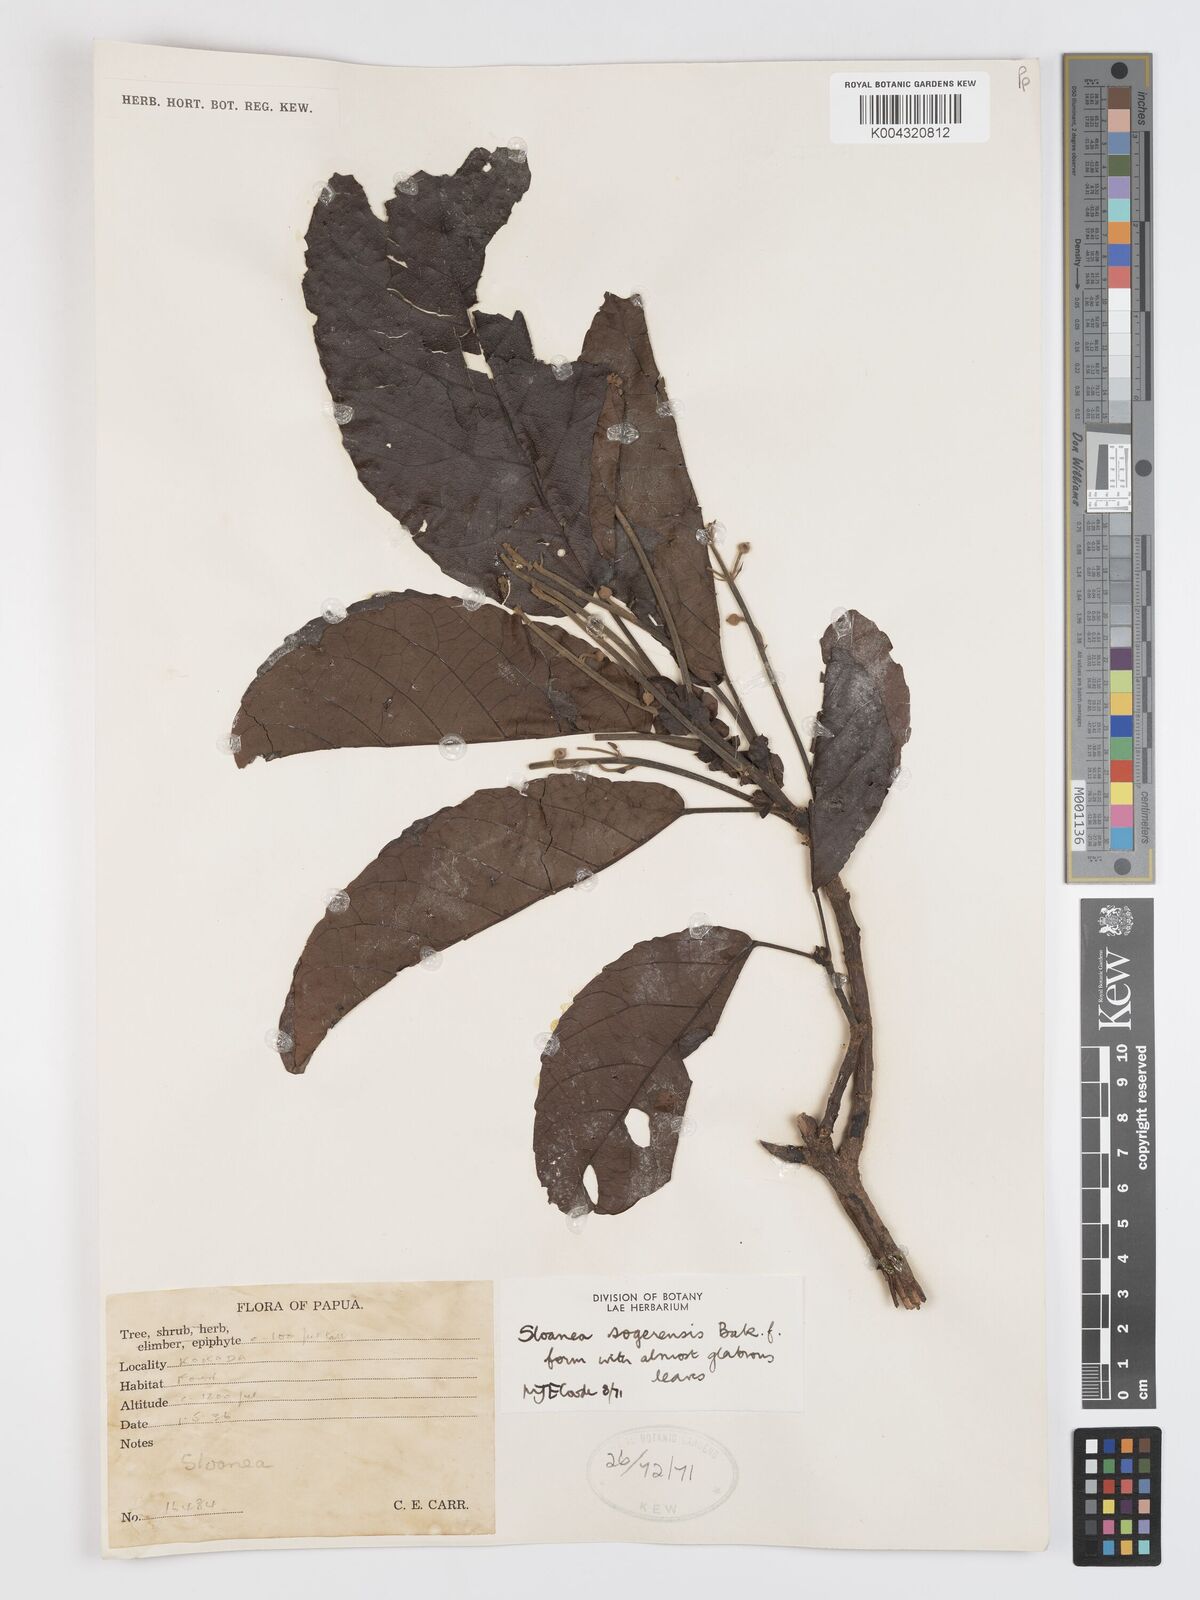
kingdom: Plantae
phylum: Tracheophyta
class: Magnoliopsida
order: Oxalidales
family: Elaeocarpaceae
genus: Sloanea
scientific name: Sloanea sogerensis
